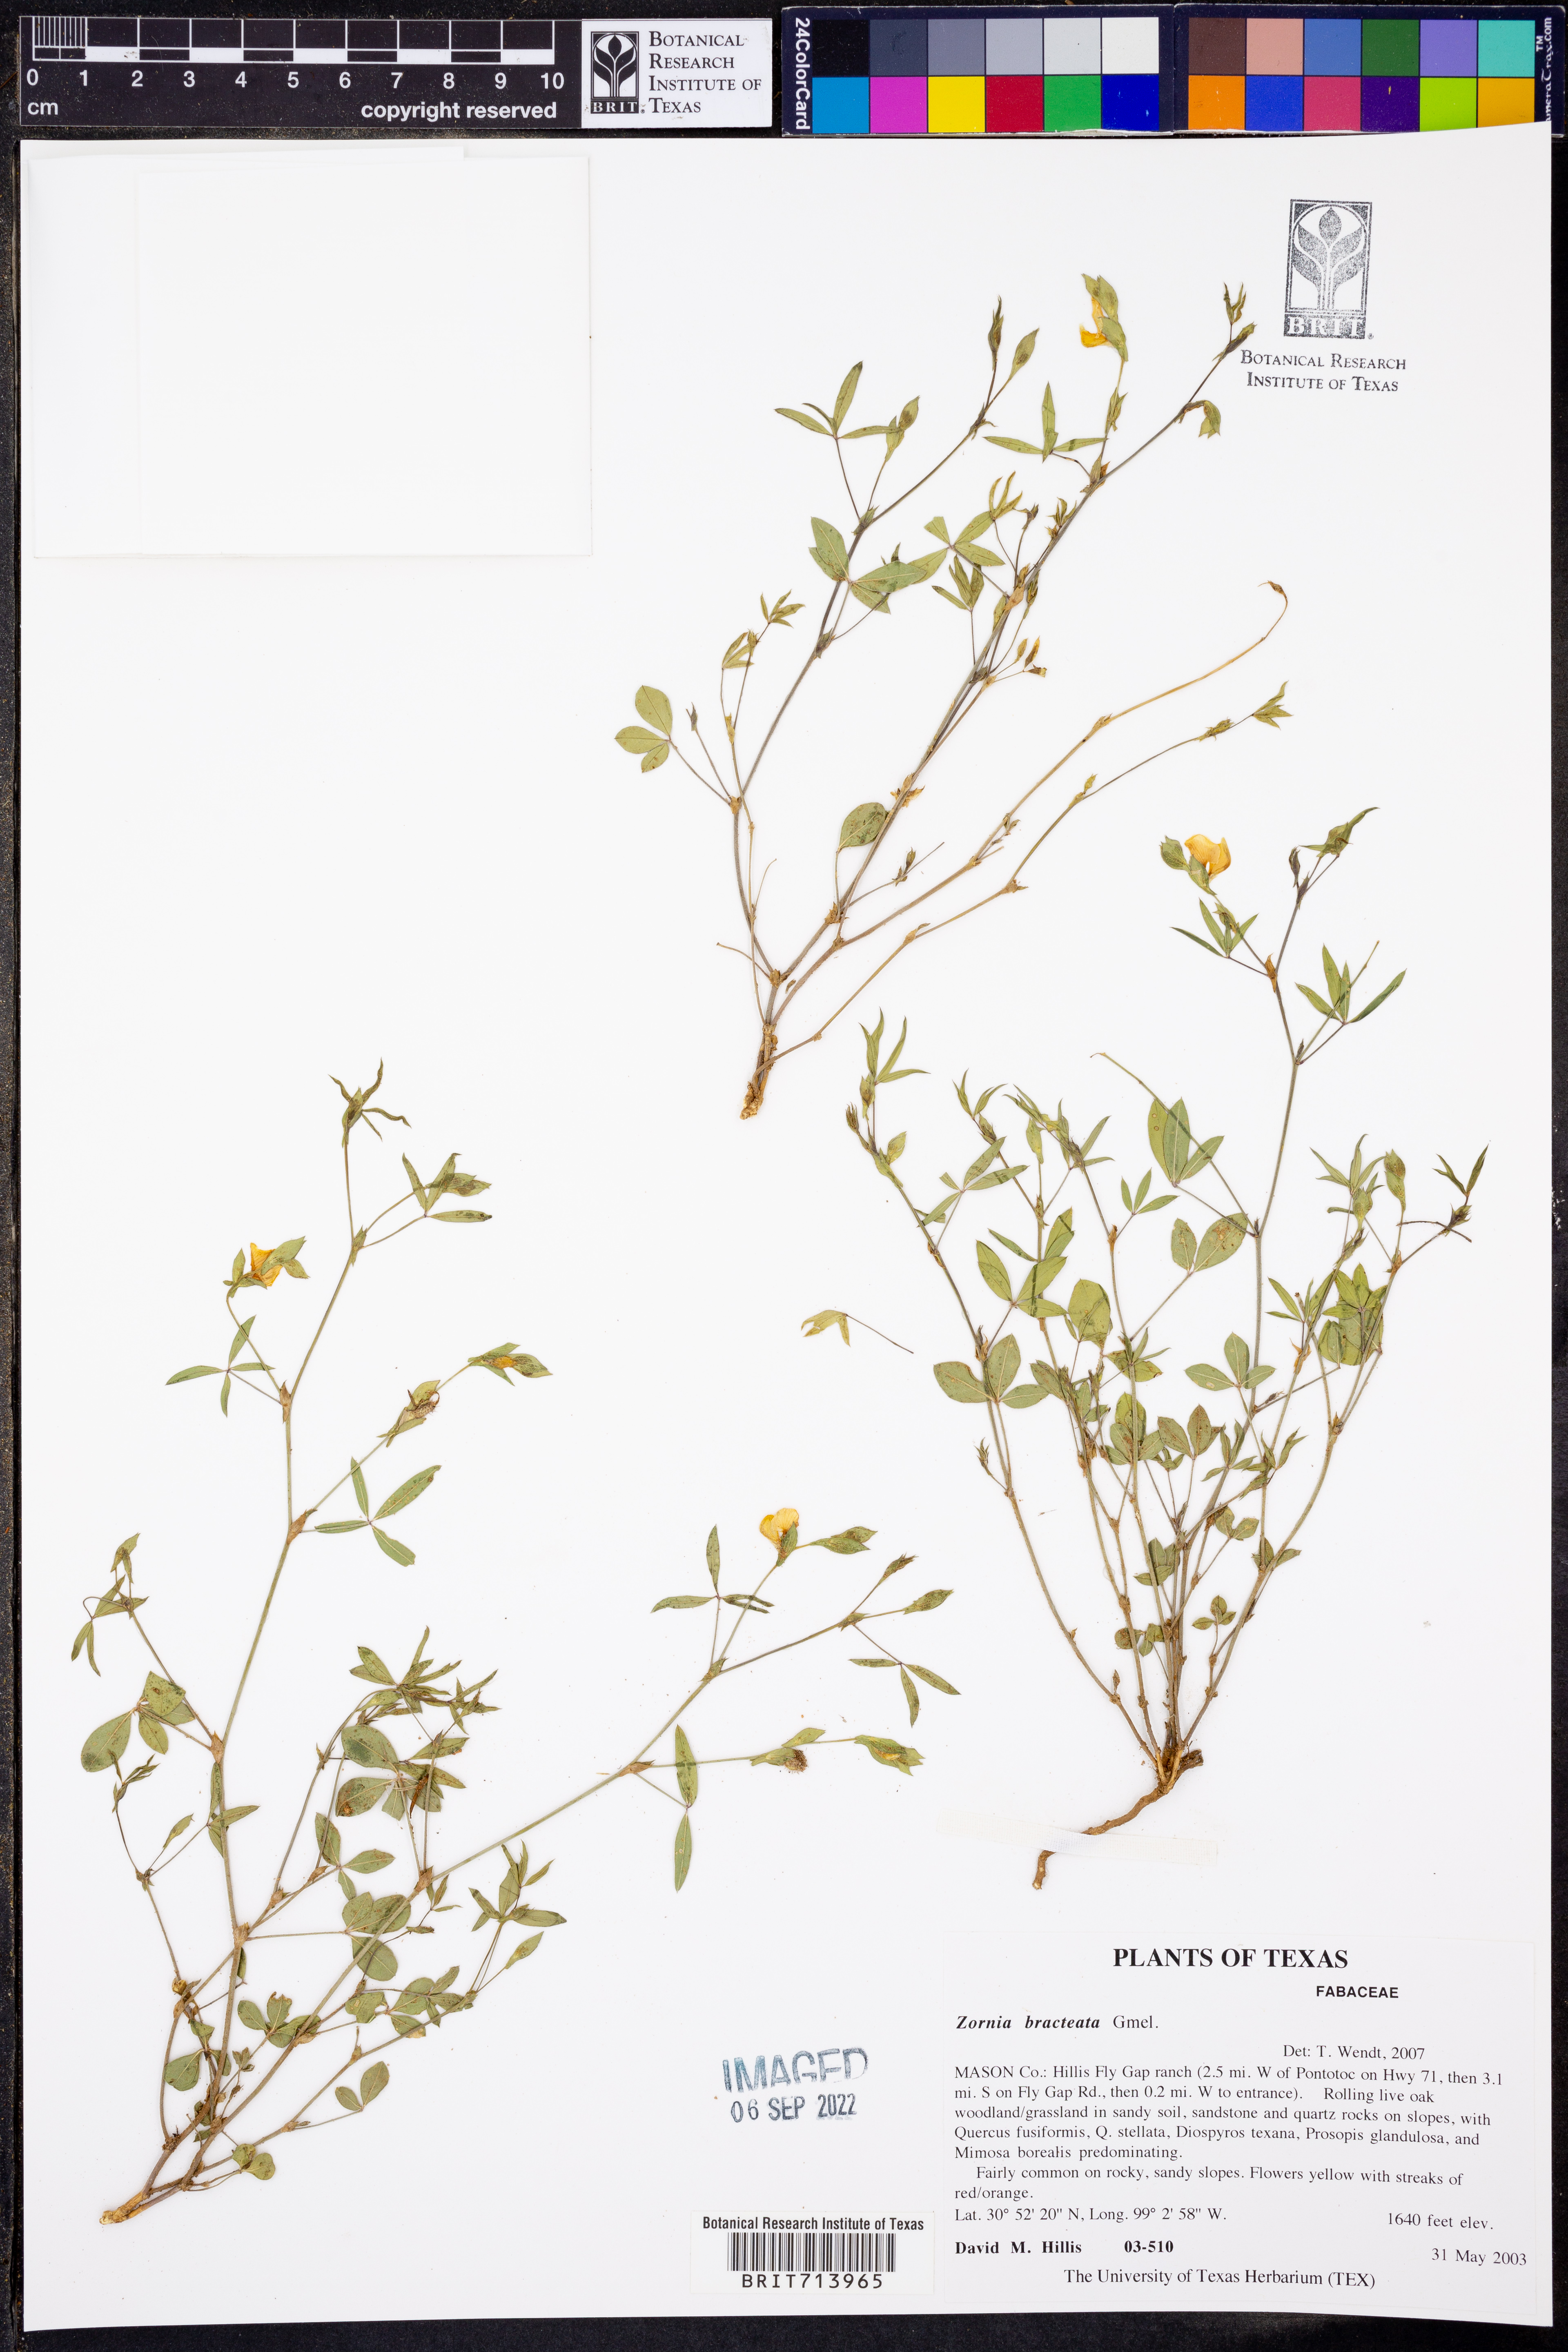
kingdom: Plantae
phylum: Tracheophyta
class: Magnoliopsida
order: Fabales
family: Fabaceae
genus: Zornia
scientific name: Zornia bracteata
